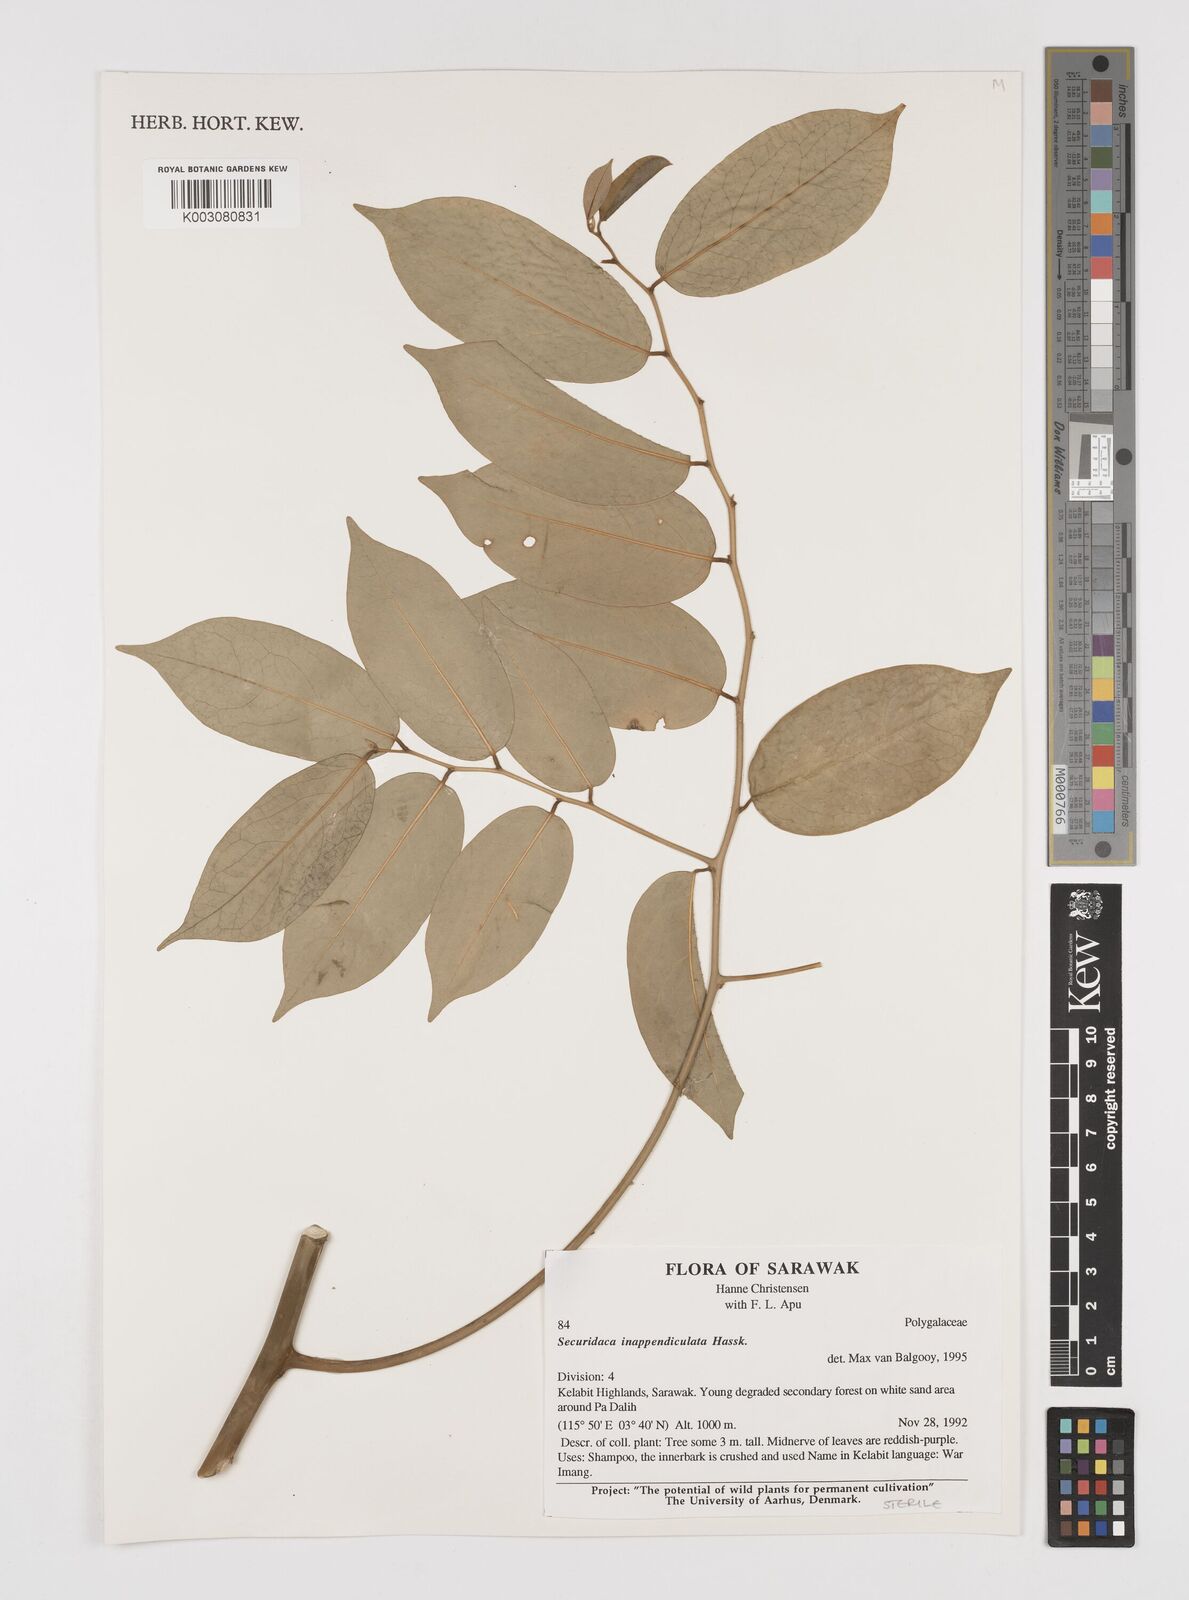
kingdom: Plantae
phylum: Tracheophyta
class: Magnoliopsida
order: Fabales
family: Polygalaceae
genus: Securidaca
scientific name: Securidaca inappendiculata
